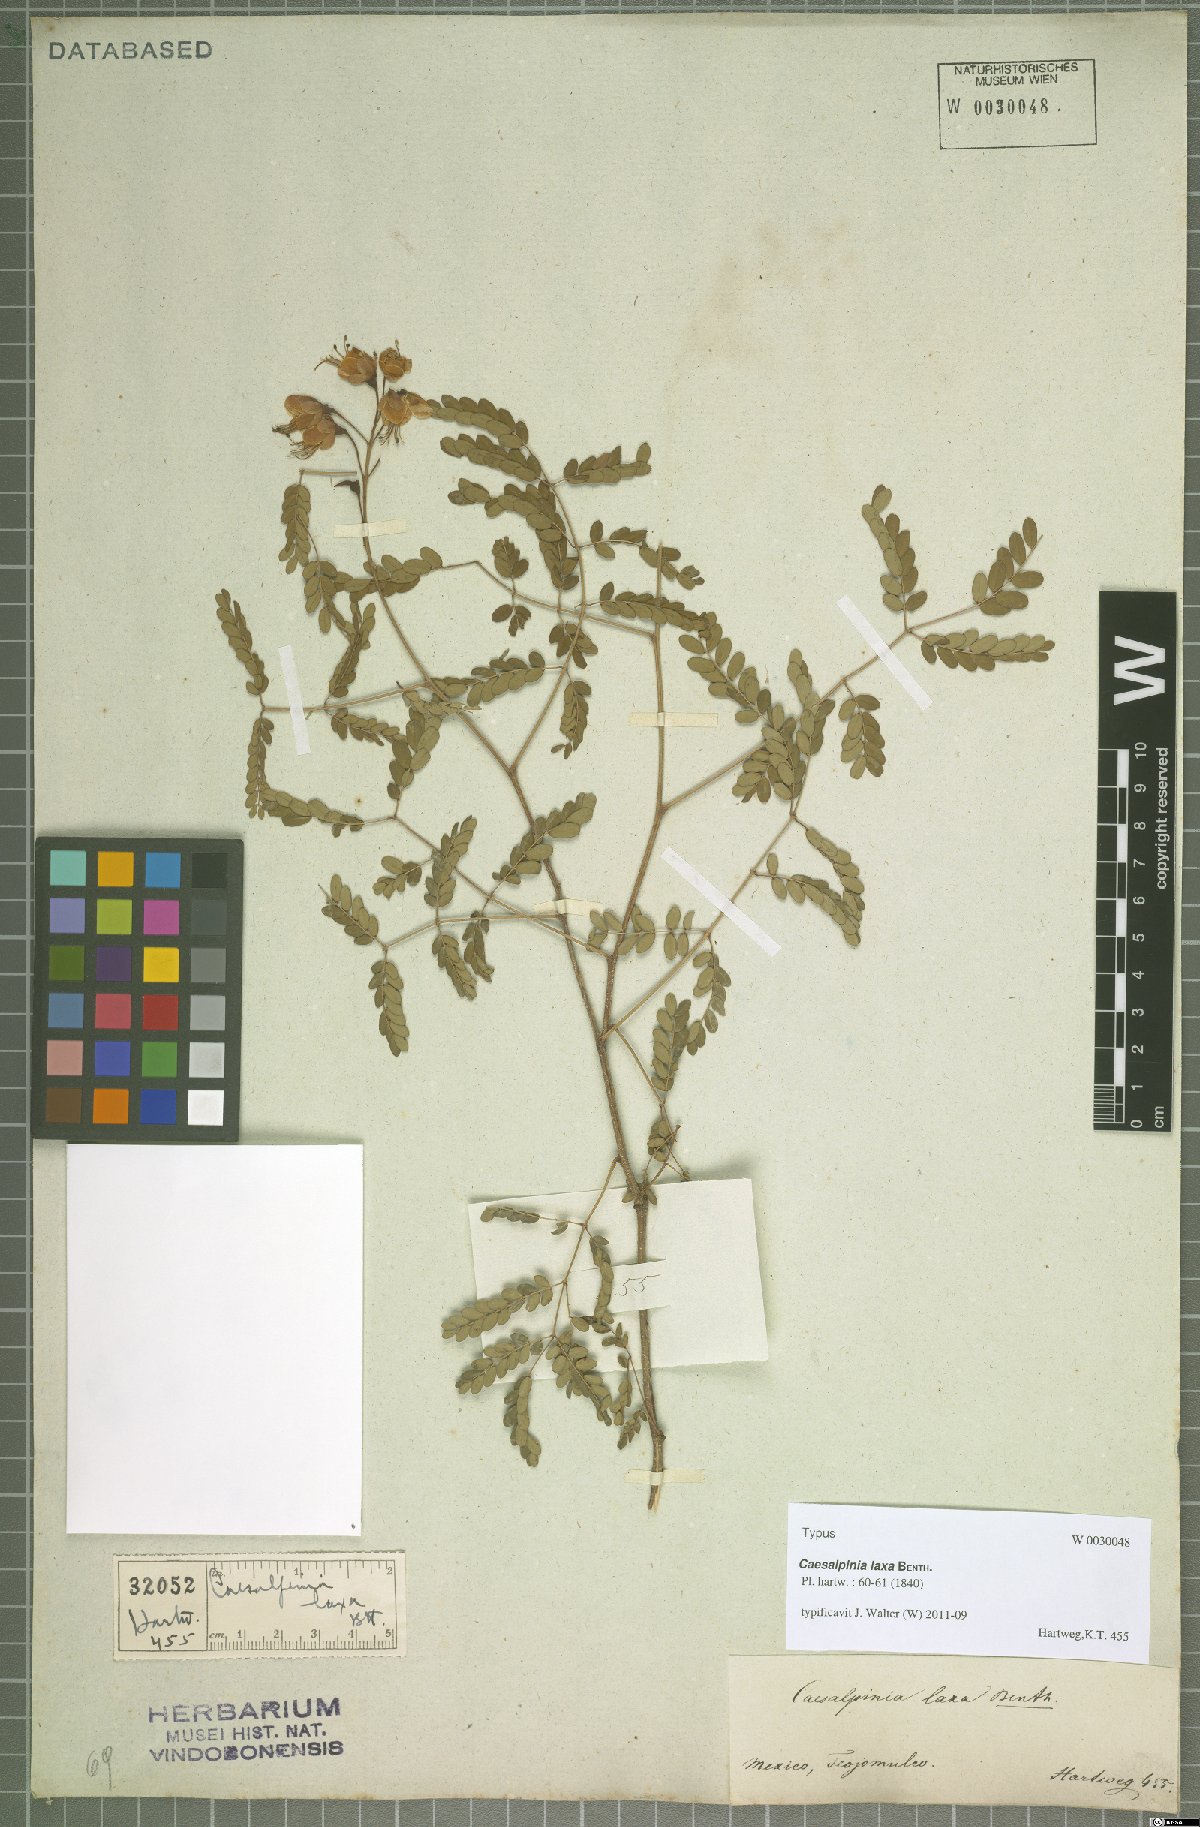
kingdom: Plantae
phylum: Tracheophyta
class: Magnoliopsida
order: Fabales
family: Fabaceae
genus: Erythrostemon
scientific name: Erythrostemon laxus
